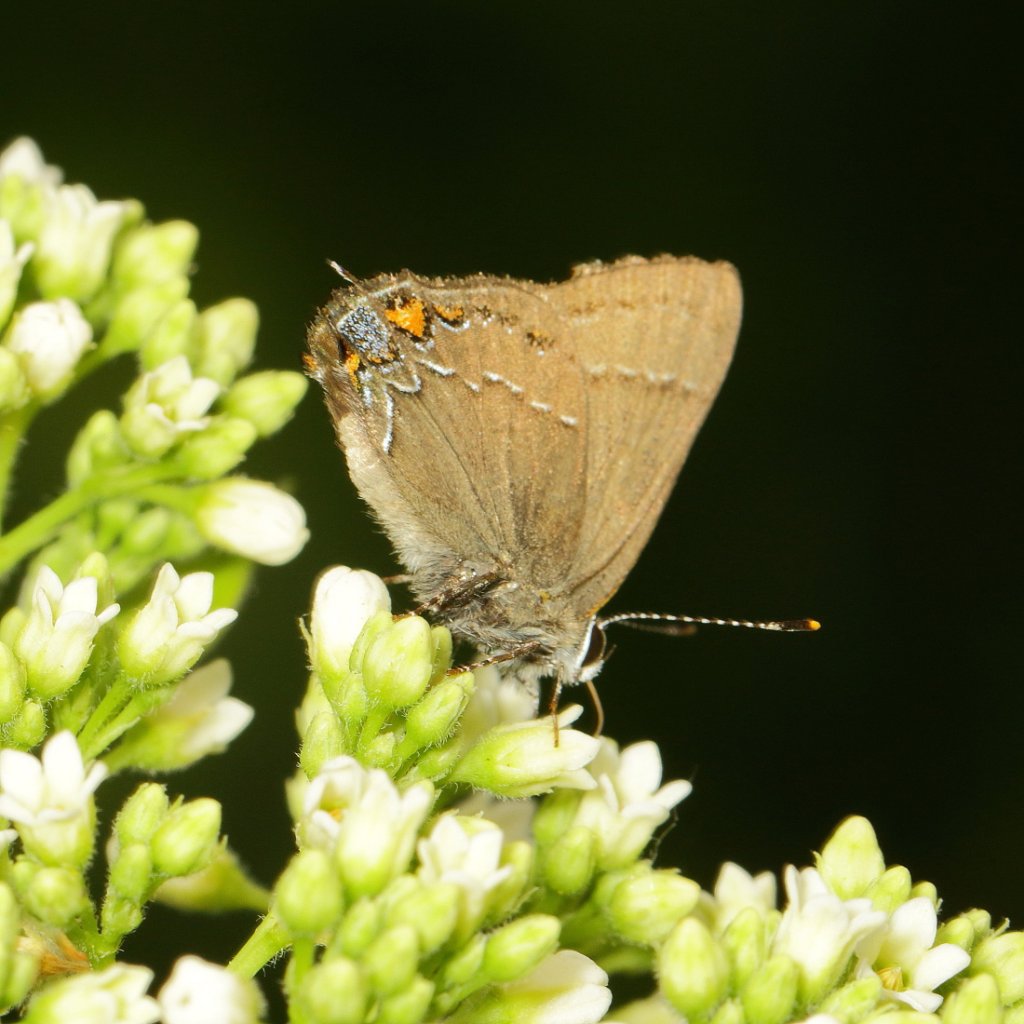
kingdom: Animalia
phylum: Arthropoda
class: Insecta
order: Lepidoptera
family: Lycaenidae
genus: Fixsenia
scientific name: Fixsenia favonius
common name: Oak Hairstreak
